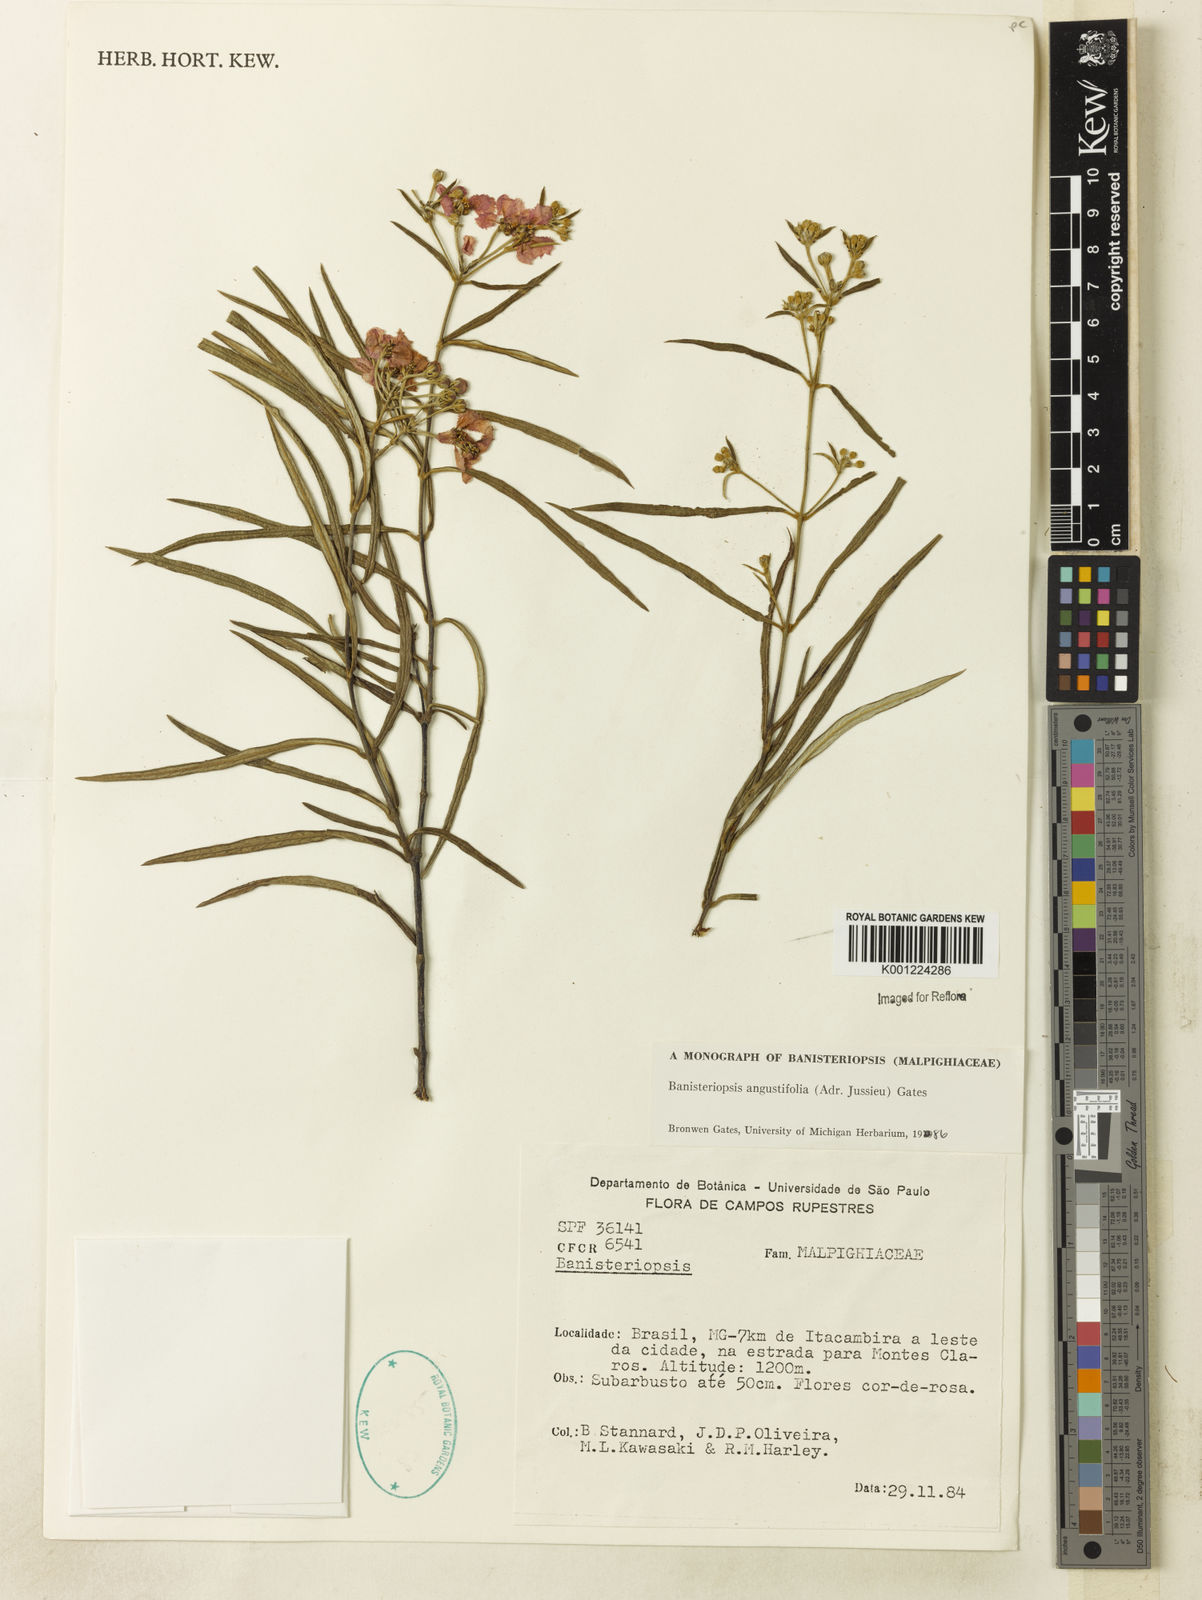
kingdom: Plantae
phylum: Tracheophyta
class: Magnoliopsida
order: Malpighiales
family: Malpighiaceae
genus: Banisteriopsis
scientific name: Banisteriopsis angustifolia
